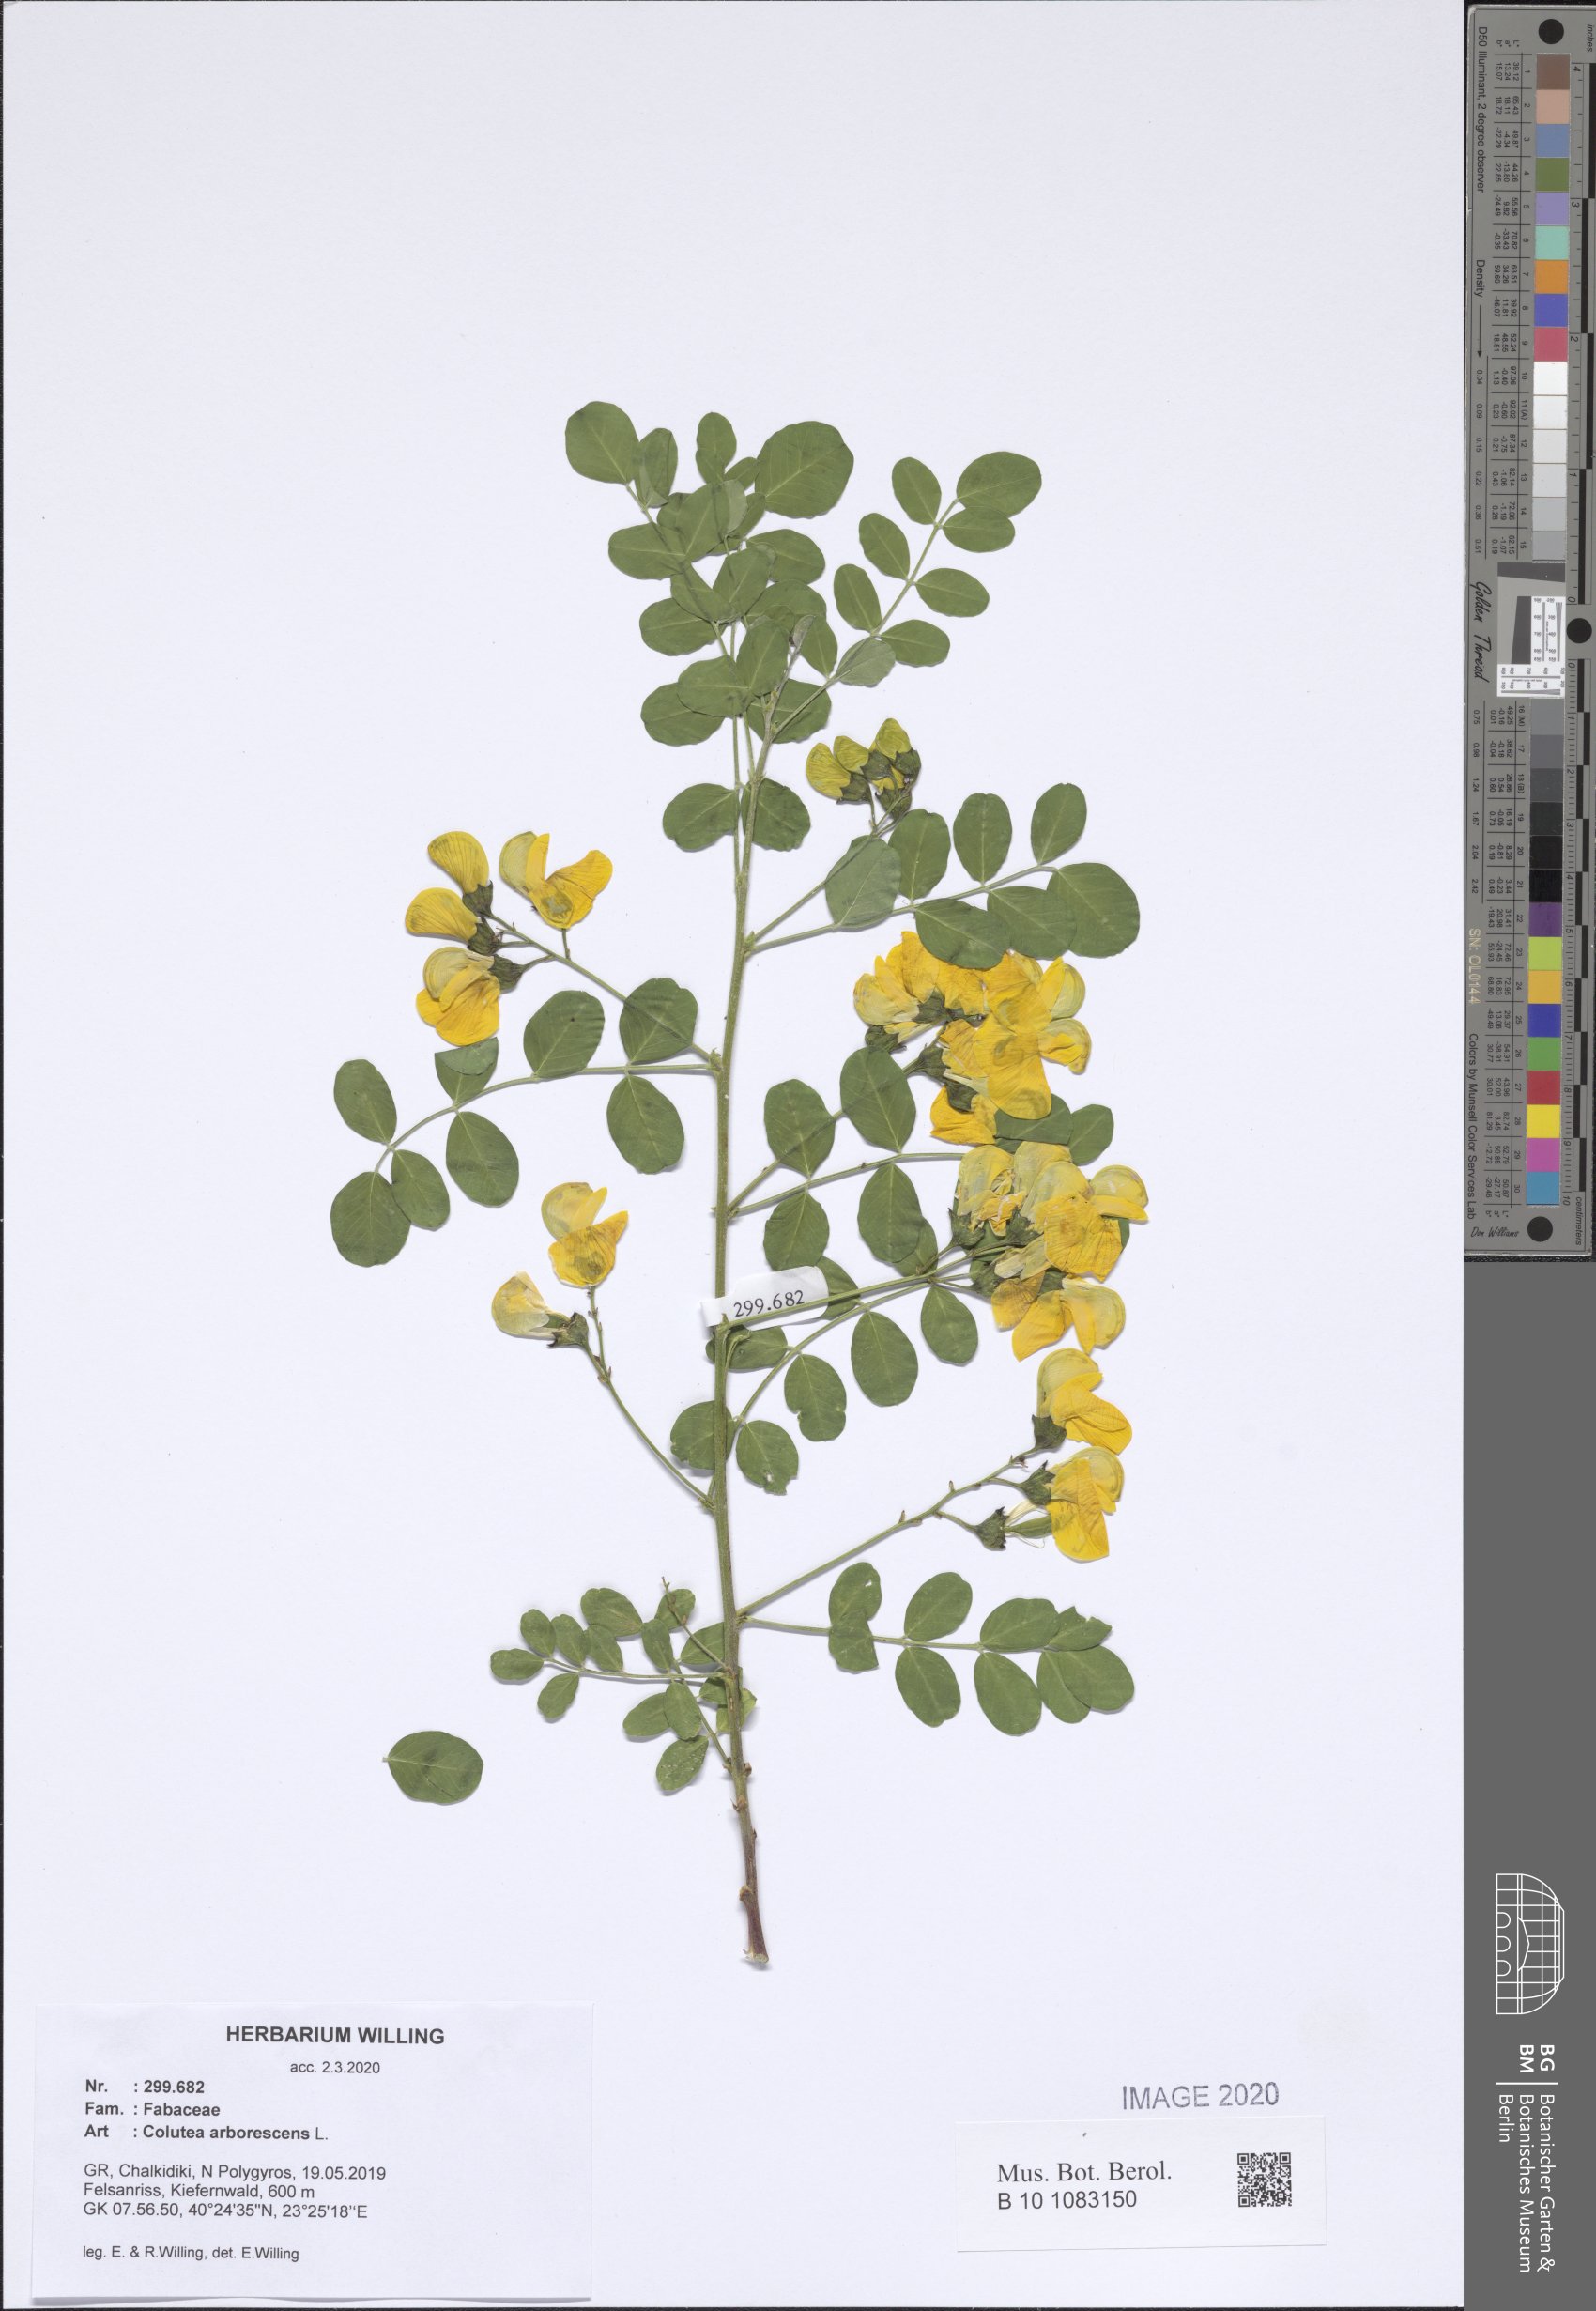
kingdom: Plantae
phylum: Tracheophyta
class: Magnoliopsida
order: Fabales
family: Fabaceae
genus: Colutea
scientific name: Colutea arborescens
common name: Bladder-senna
